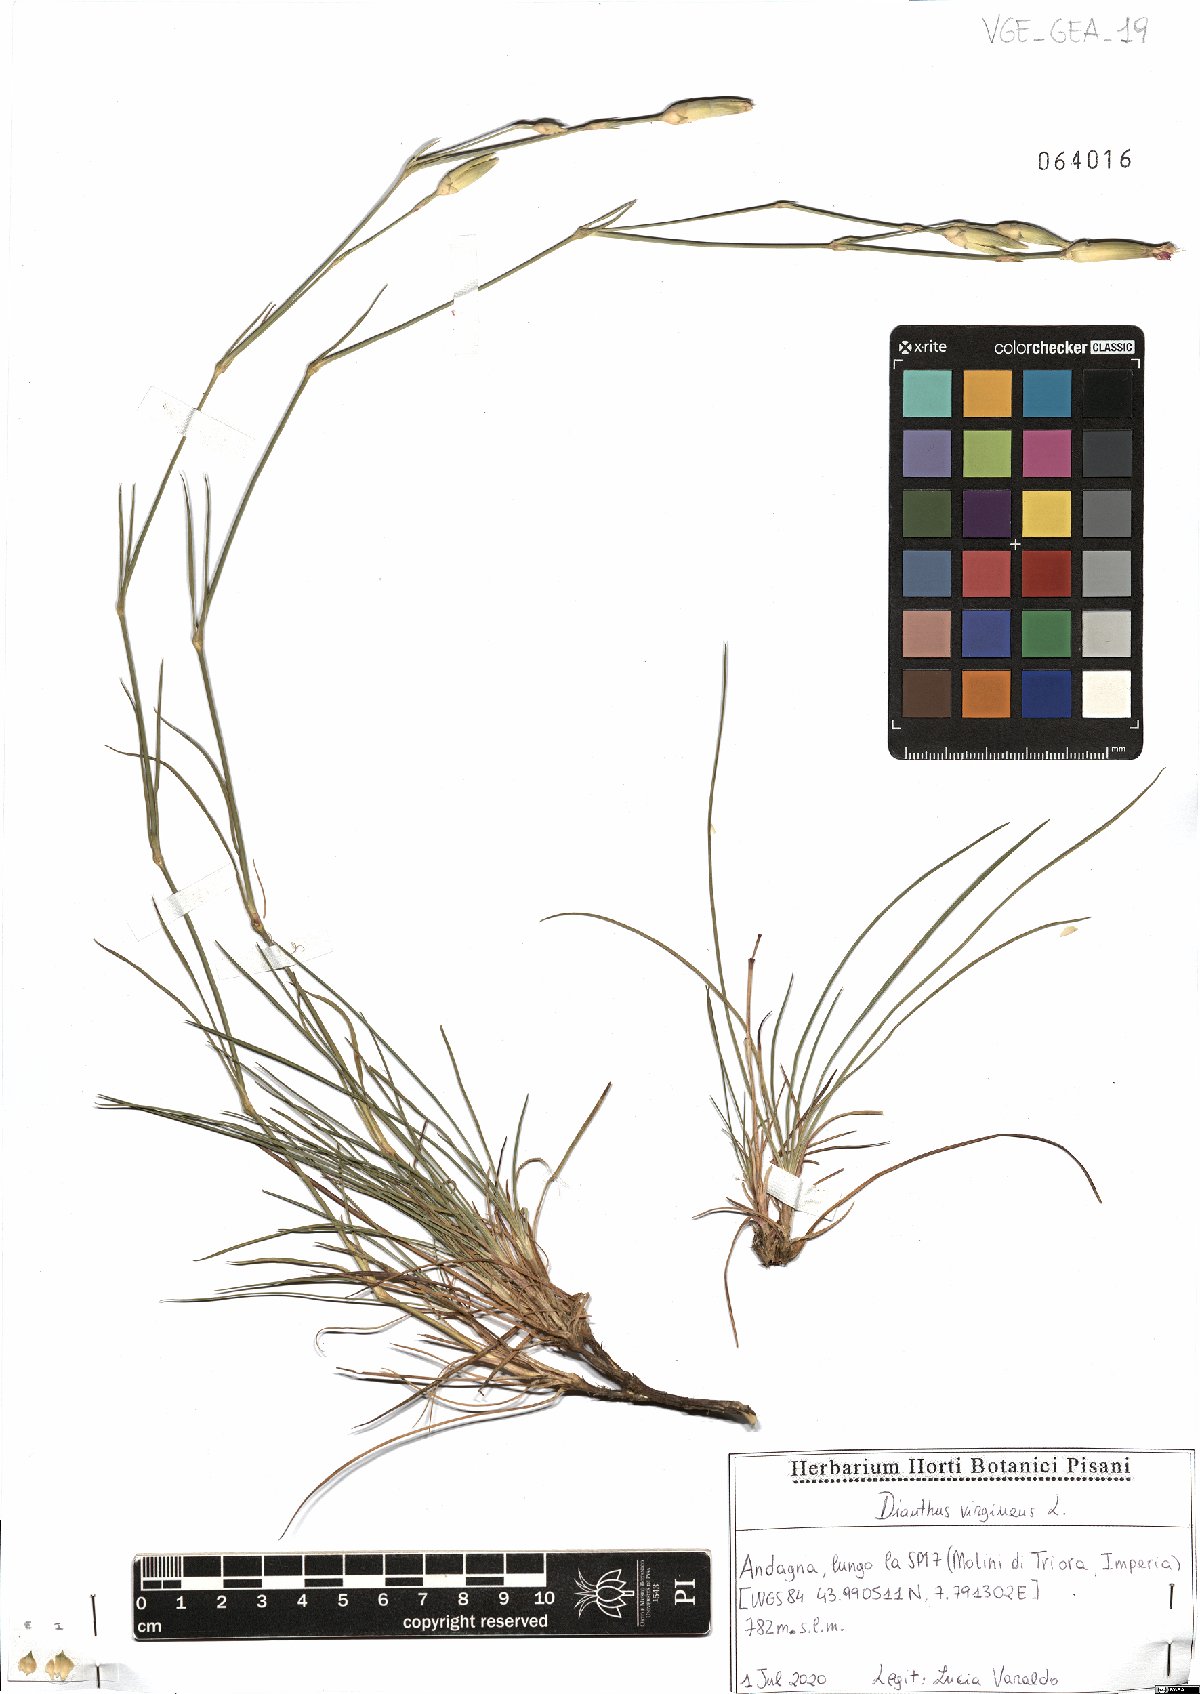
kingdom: Plantae
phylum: Tracheophyta
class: Magnoliopsida
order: Caryophyllales
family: Caryophyllaceae
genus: Dianthus
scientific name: Dianthus virgineus
